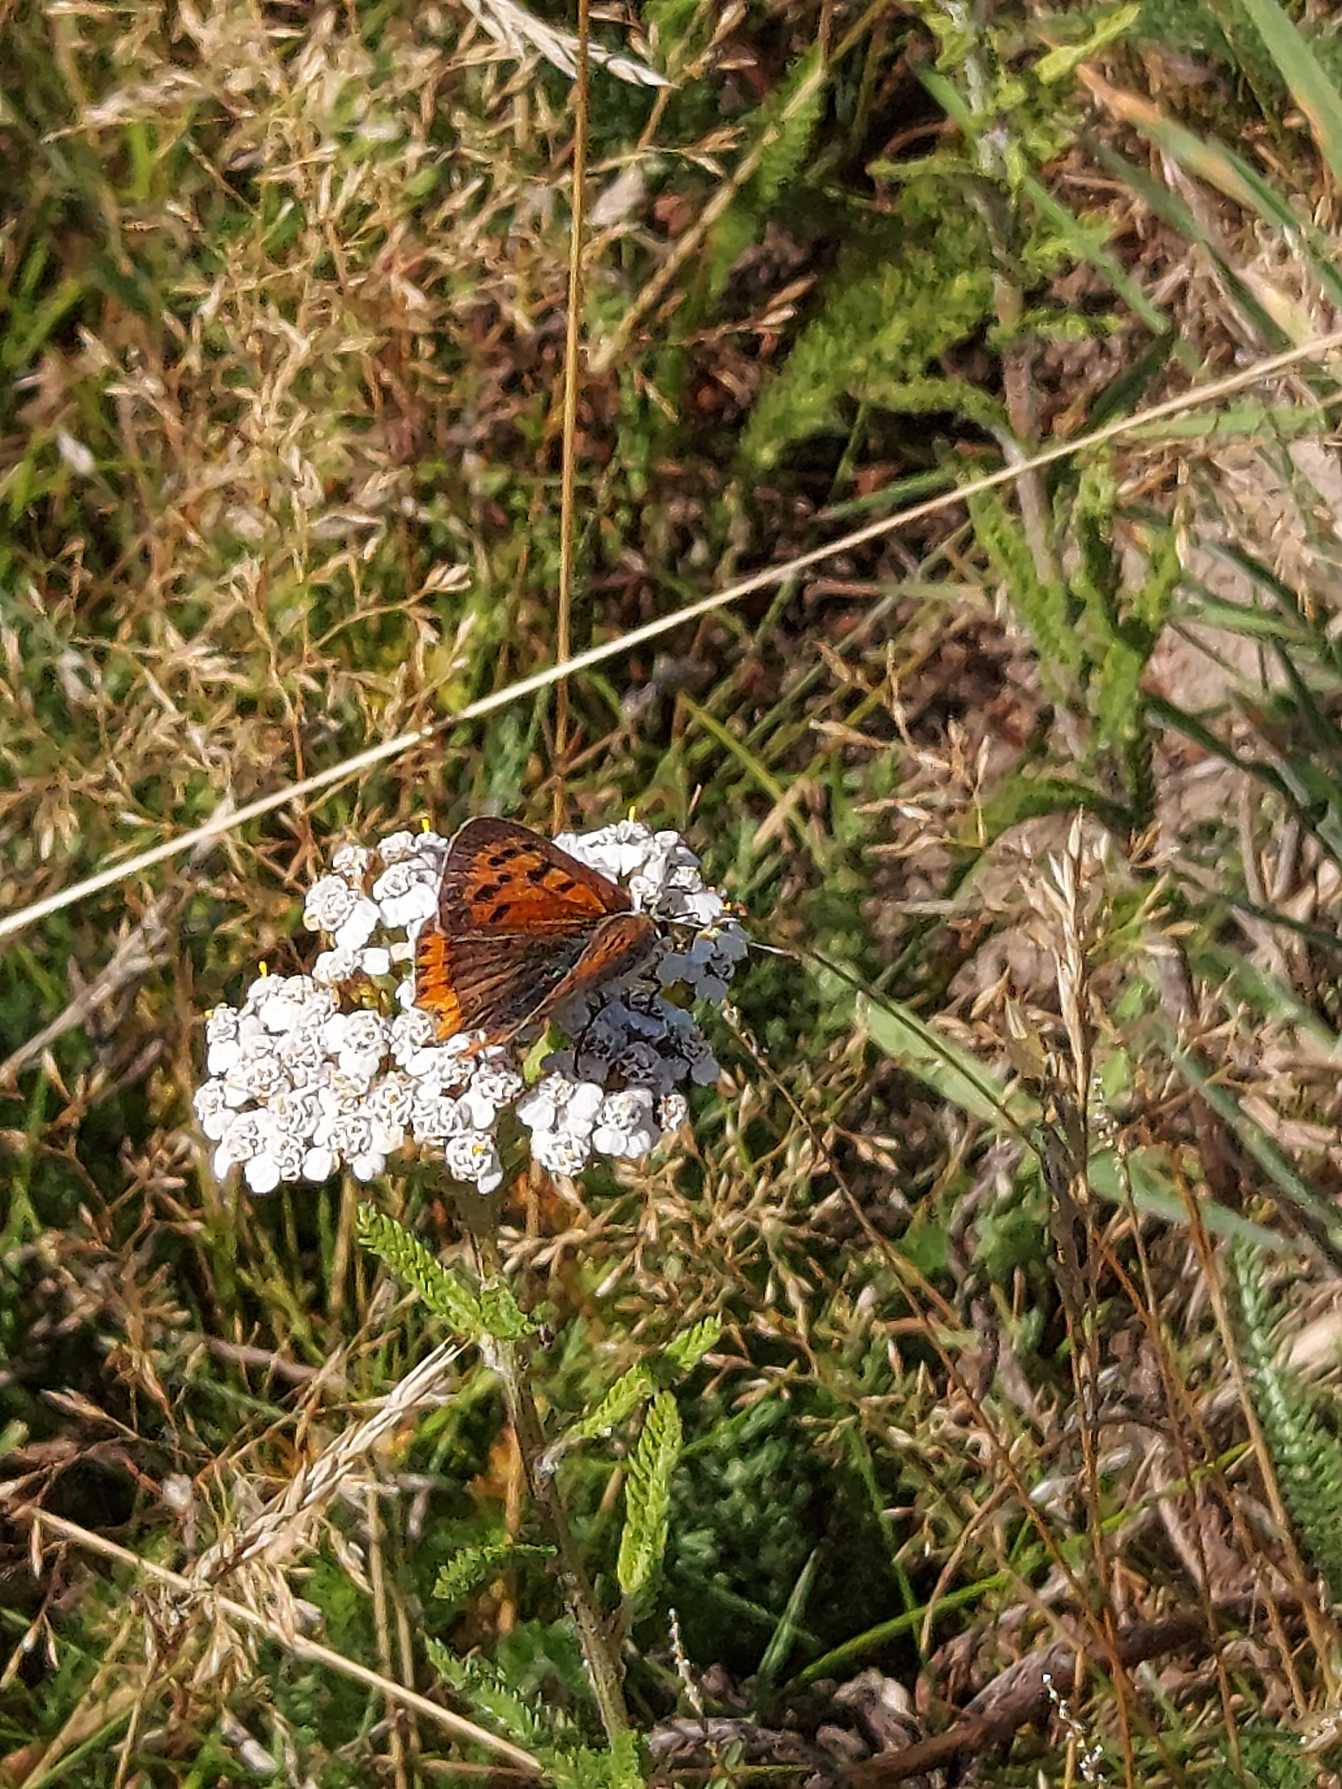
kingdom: Animalia
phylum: Arthropoda
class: Insecta
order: Lepidoptera
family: Lycaenidae
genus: Lycaena
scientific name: Lycaena phlaeas
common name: Lille ildfugl
